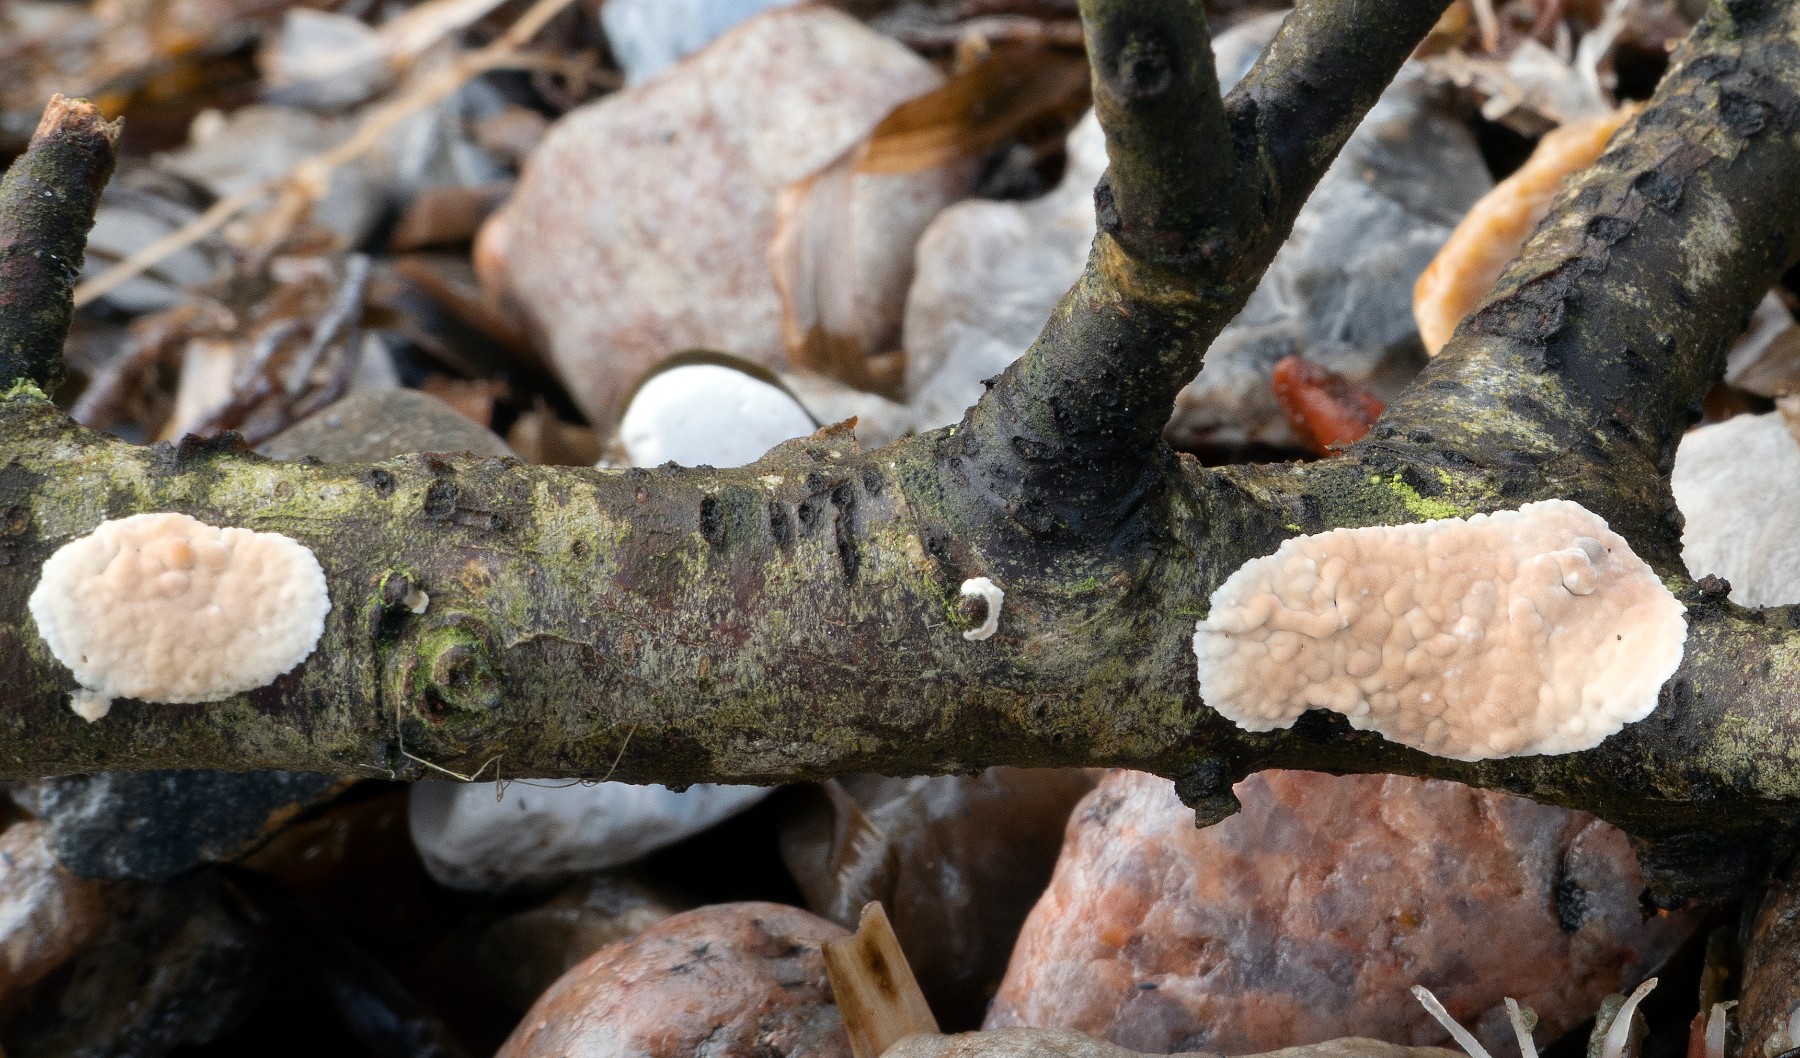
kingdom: Fungi
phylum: Basidiomycota
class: Agaricomycetes
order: Agaricales
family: Physalacriaceae
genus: Cylindrobasidium
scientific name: Cylindrobasidium evolvens
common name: sprækkehinde
